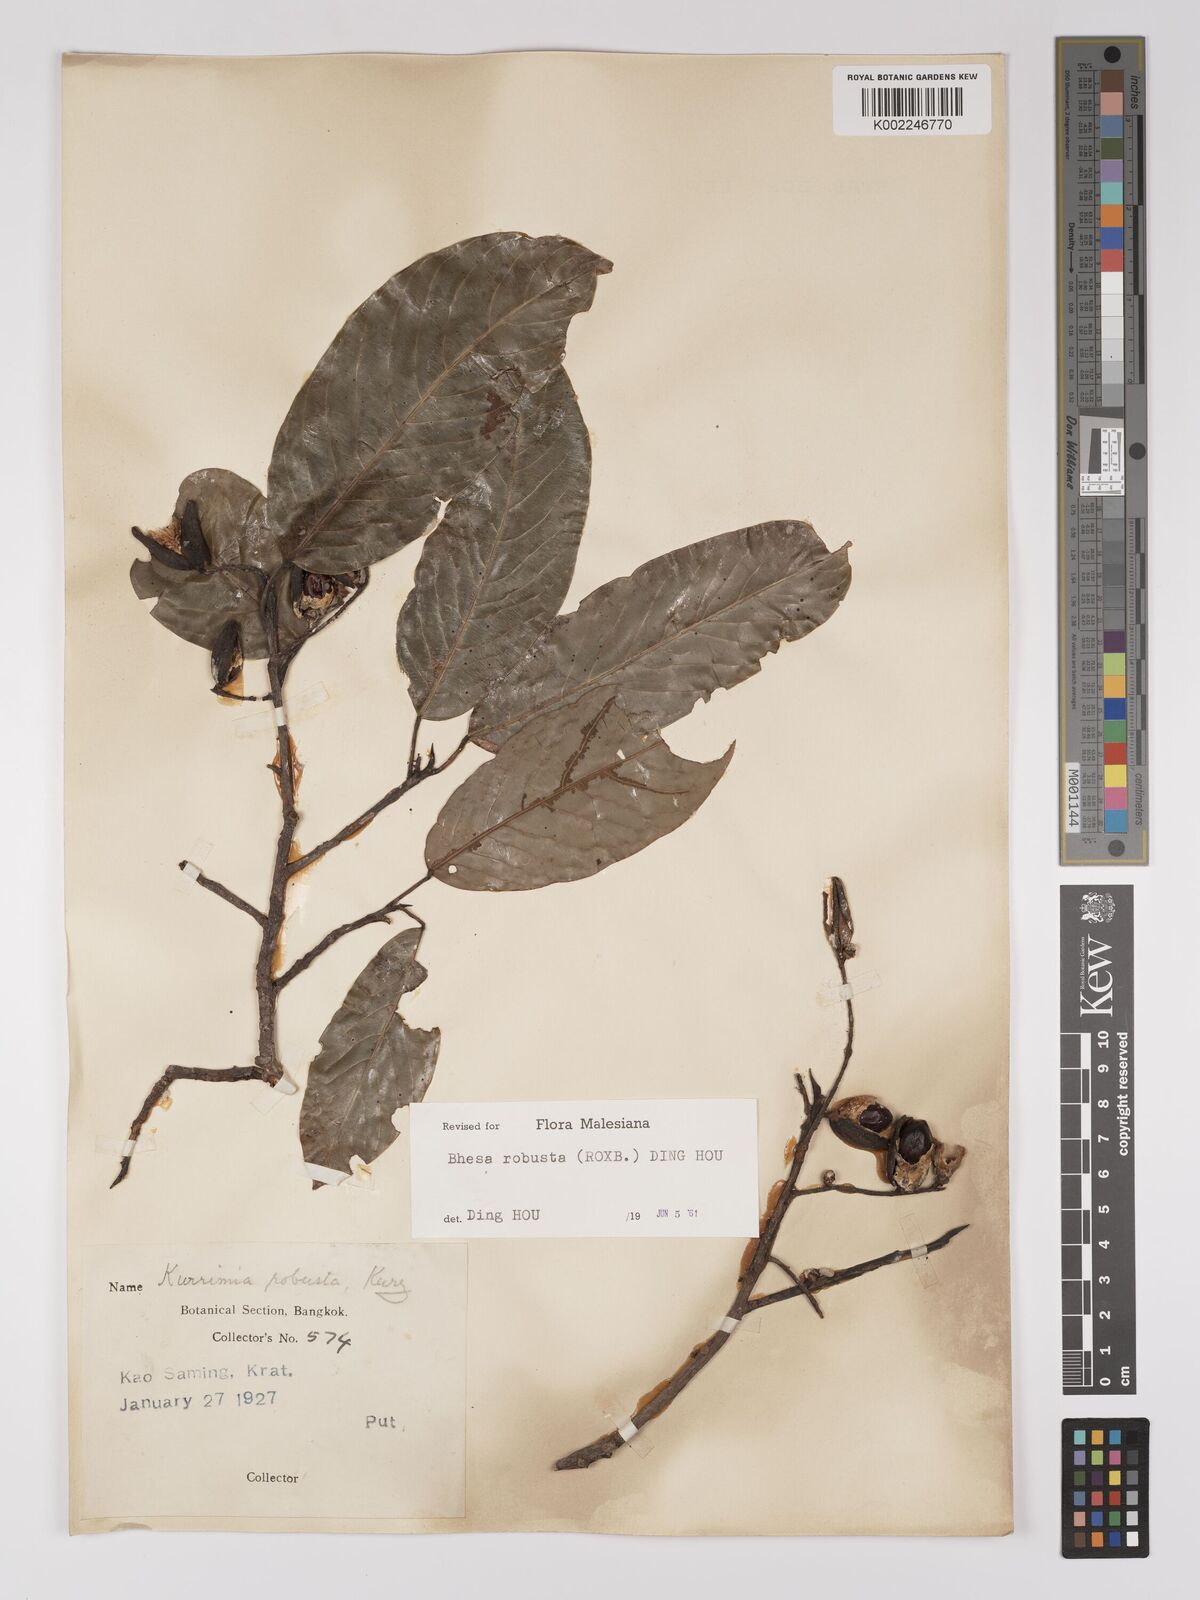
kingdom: Plantae
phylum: Tracheophyta
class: Magnoliopsida
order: Malpighiales
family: Centroplacaceae
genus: Bhesa
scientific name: Bhesa robusta
